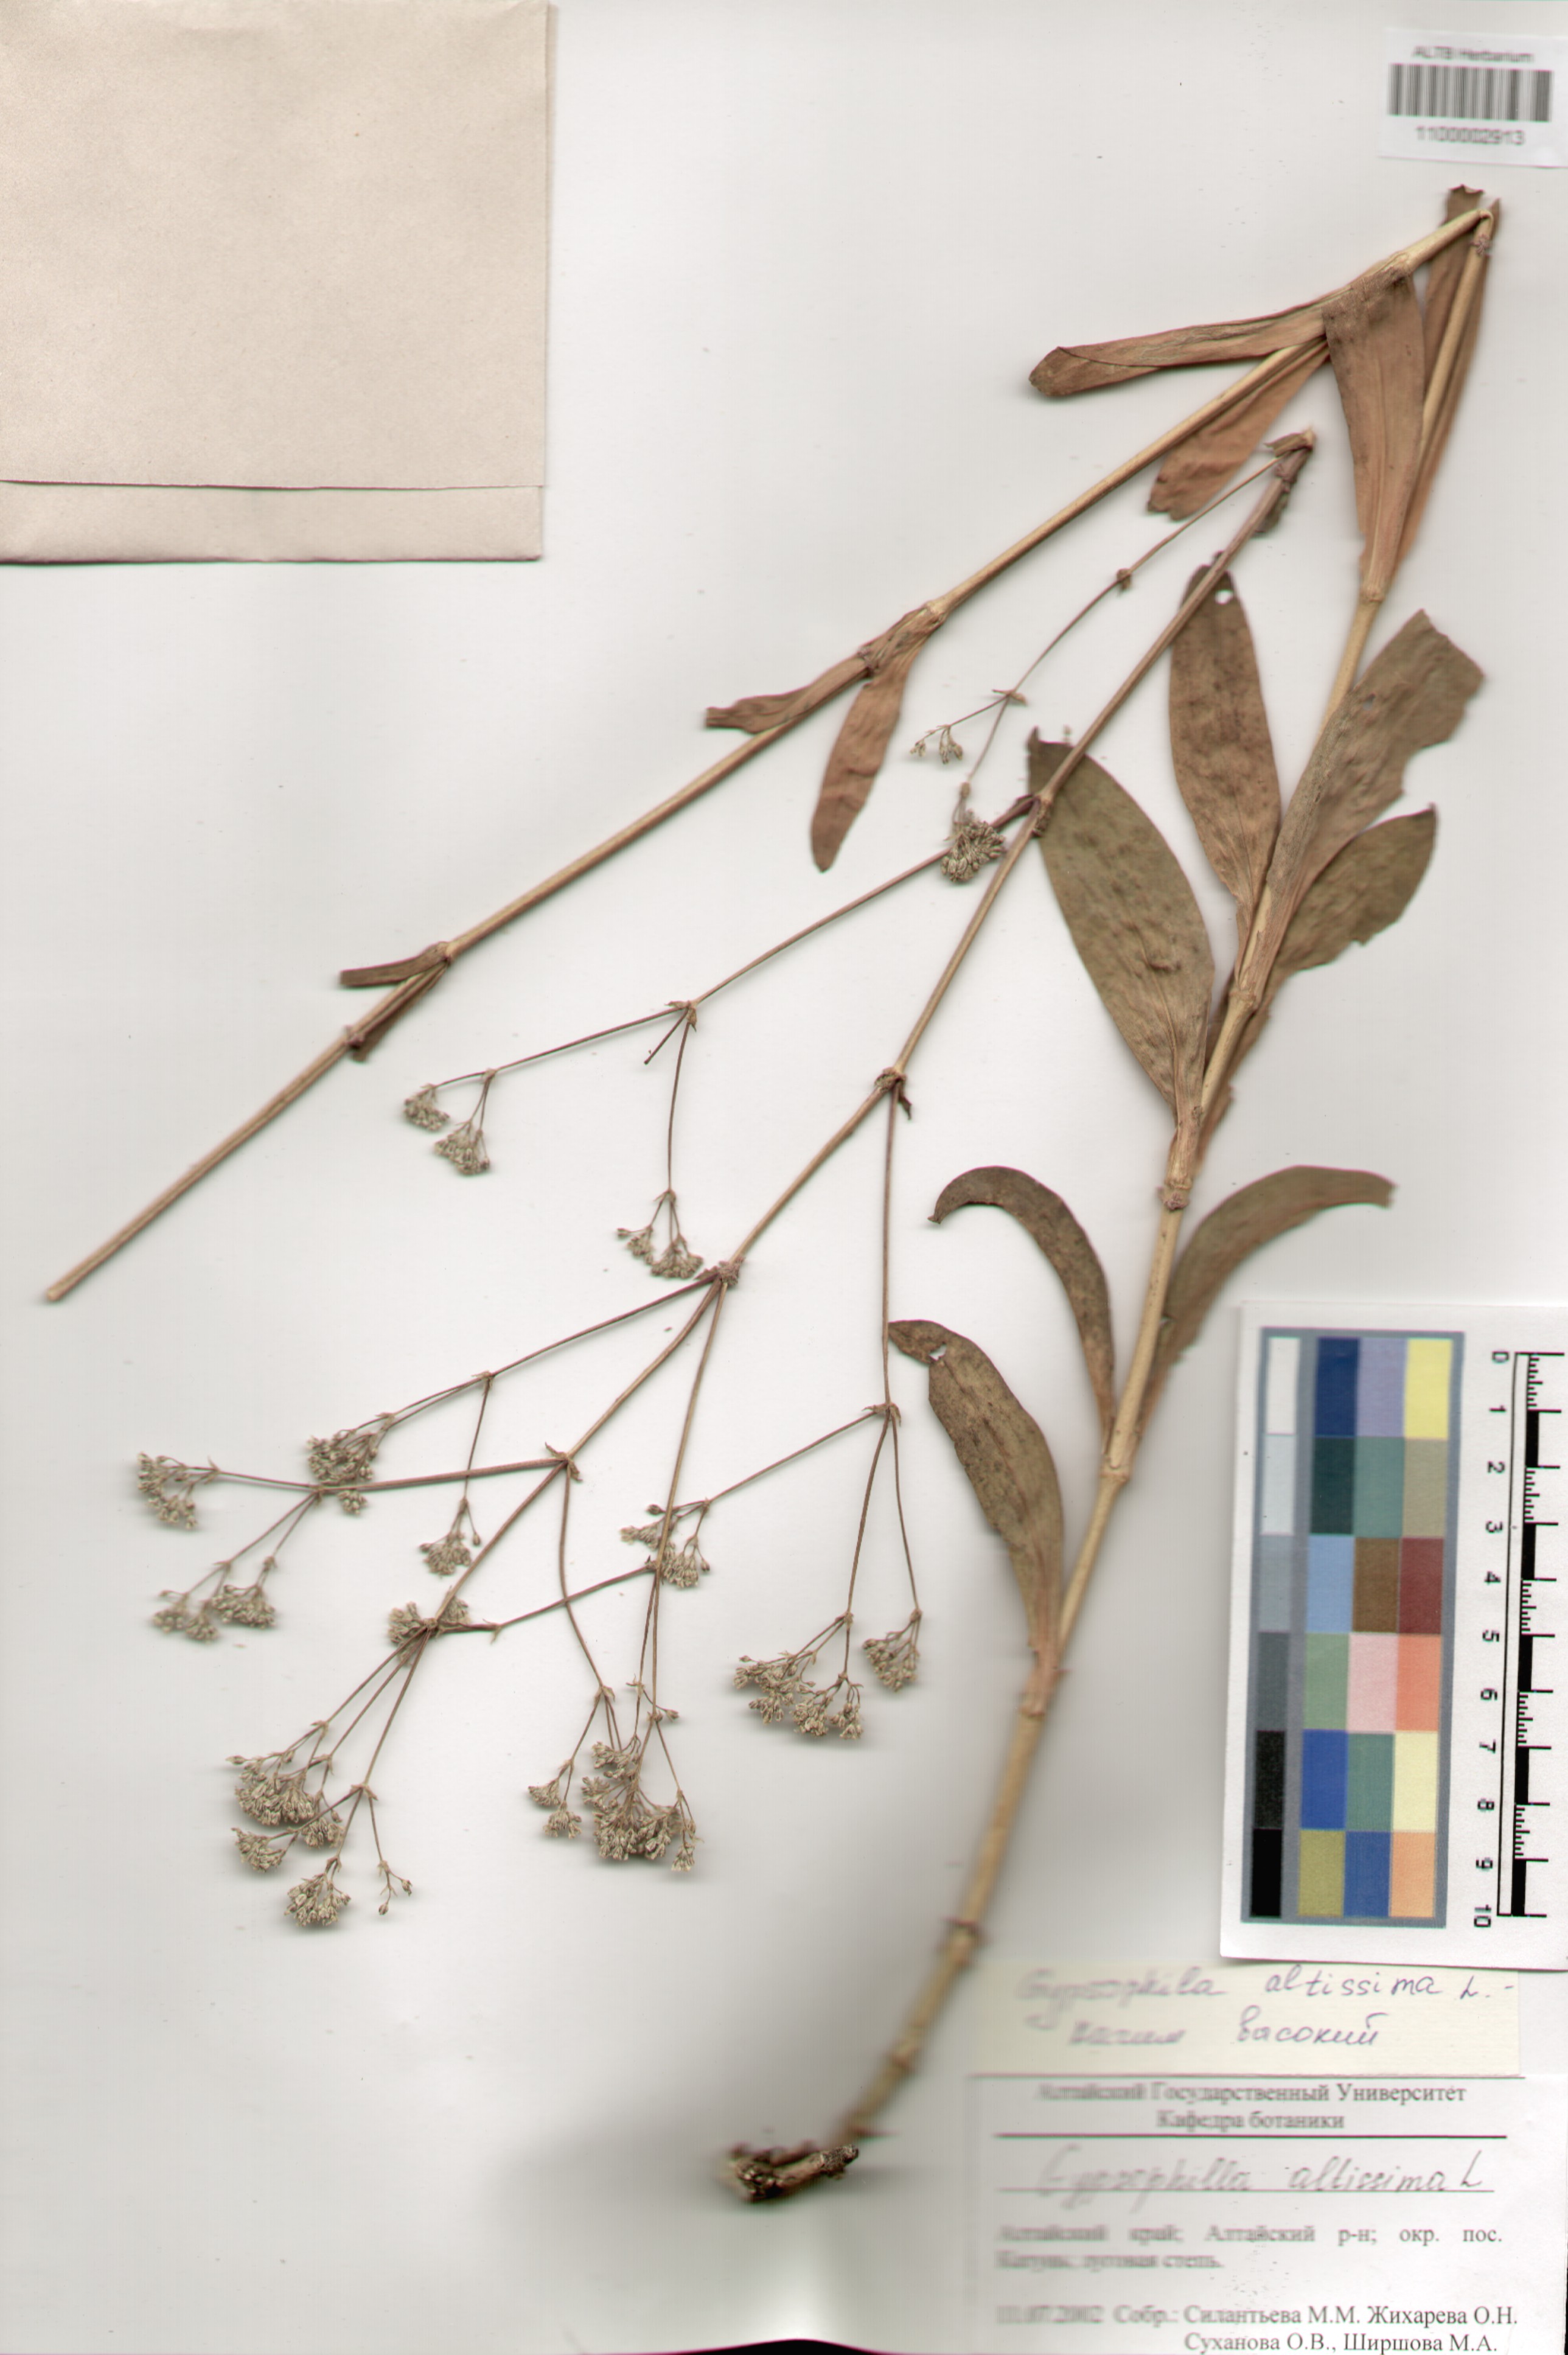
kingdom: Plantae
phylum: Tracheophyta
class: Magnoliopsida
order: Caryophyllales
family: Caryophyllaceae
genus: Gypsophila
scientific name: Gypsophila altissima
